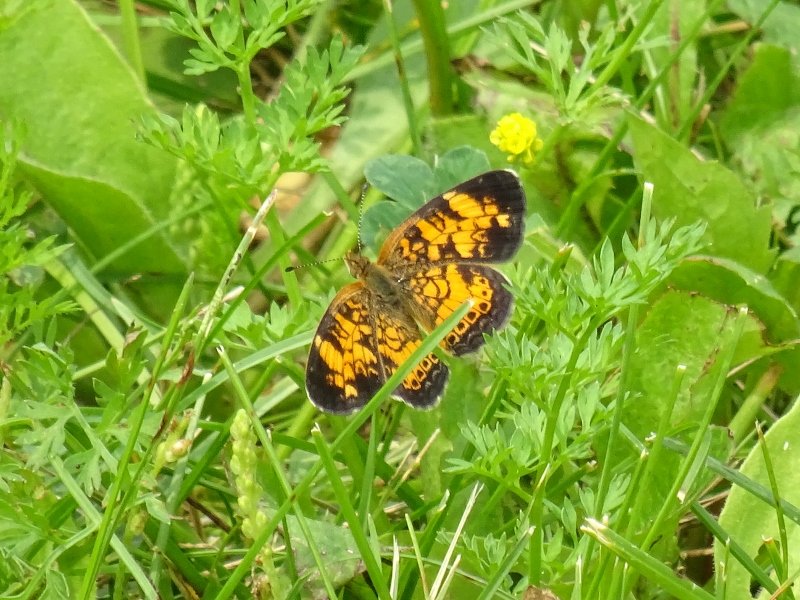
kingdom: Animalia
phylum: Arthropoda
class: Insecta
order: Lepidoptera
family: Nymphalidae
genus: Phyciodes
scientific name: Phyciodes tharos
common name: Pearl Crescent
